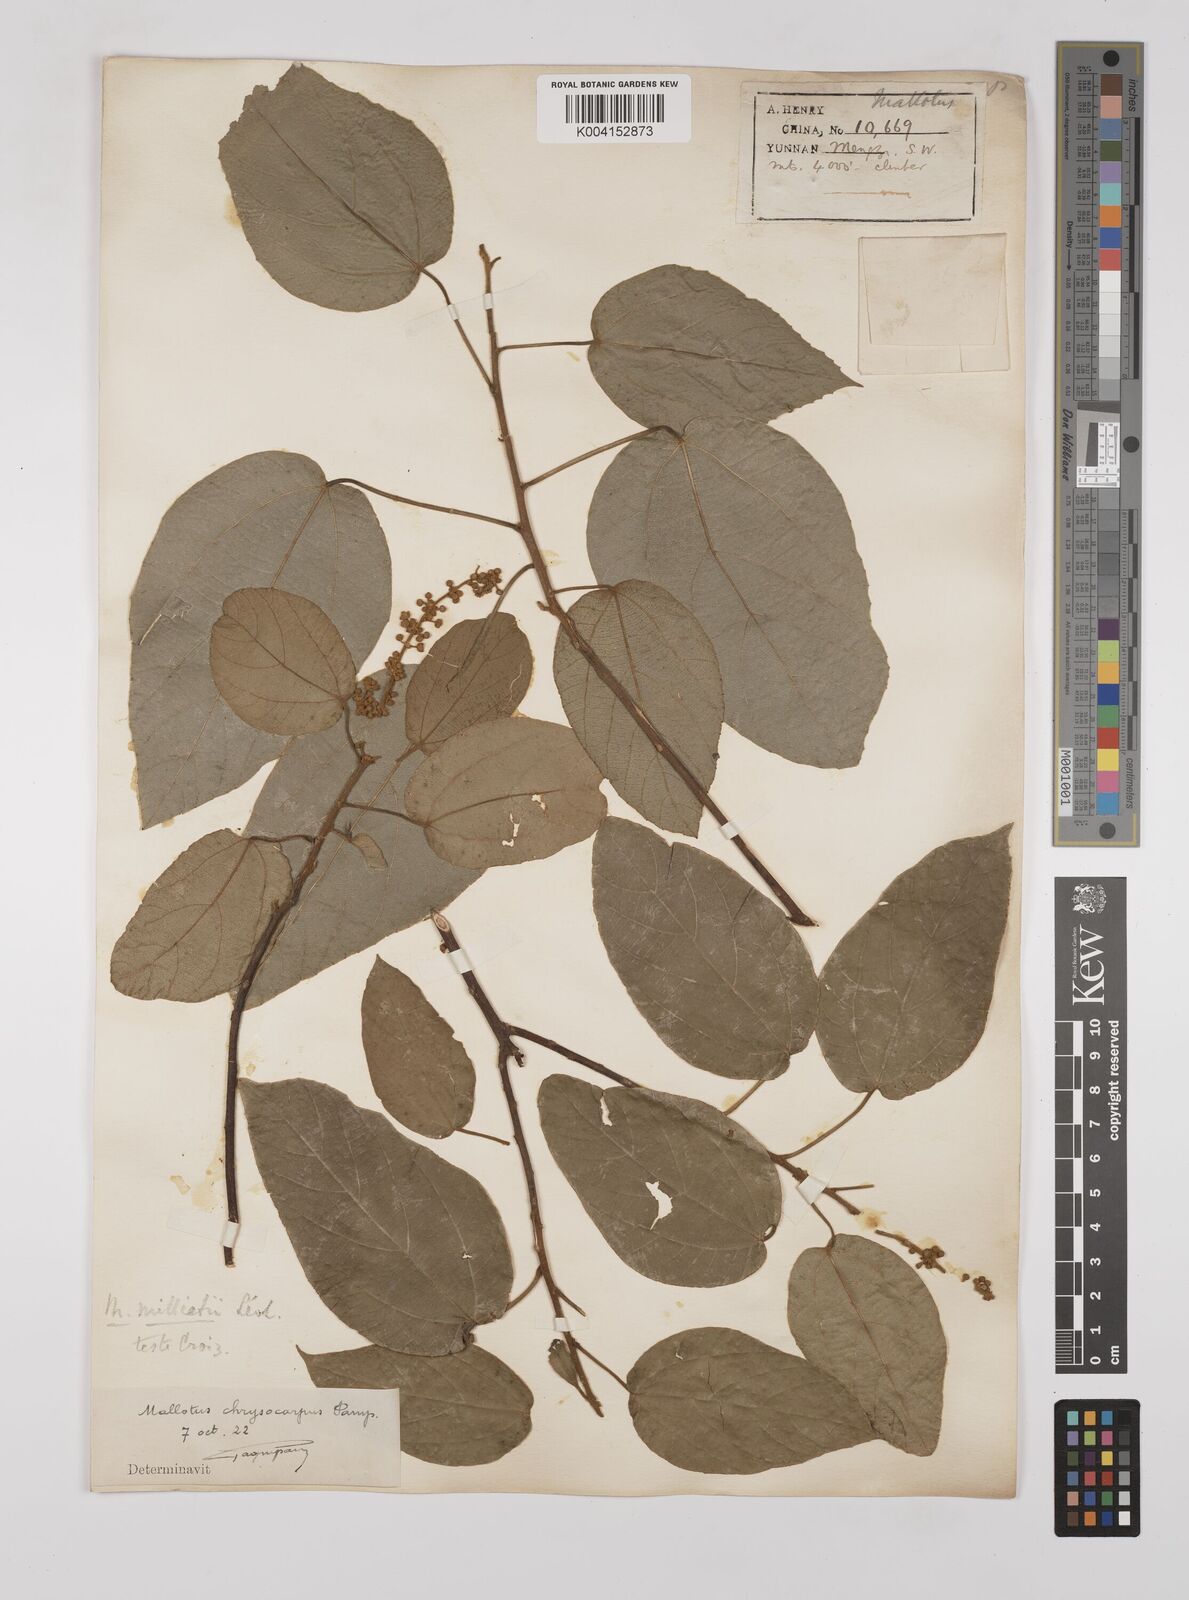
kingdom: Plantae
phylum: Tracheophyta
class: Magnoliopsida
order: Malpighiales
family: Euphorbiaceae
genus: Mallotus
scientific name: Mallotus millietii
